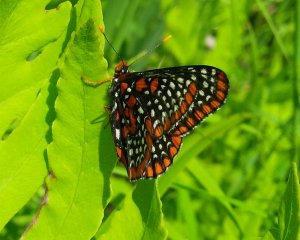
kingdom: Animalia
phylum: Arthropoda
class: Insecta
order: Lepidoptera
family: Nymphalidae
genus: Euphydryas
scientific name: Euphydryas phaeton
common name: Baltimore Checkerspot
